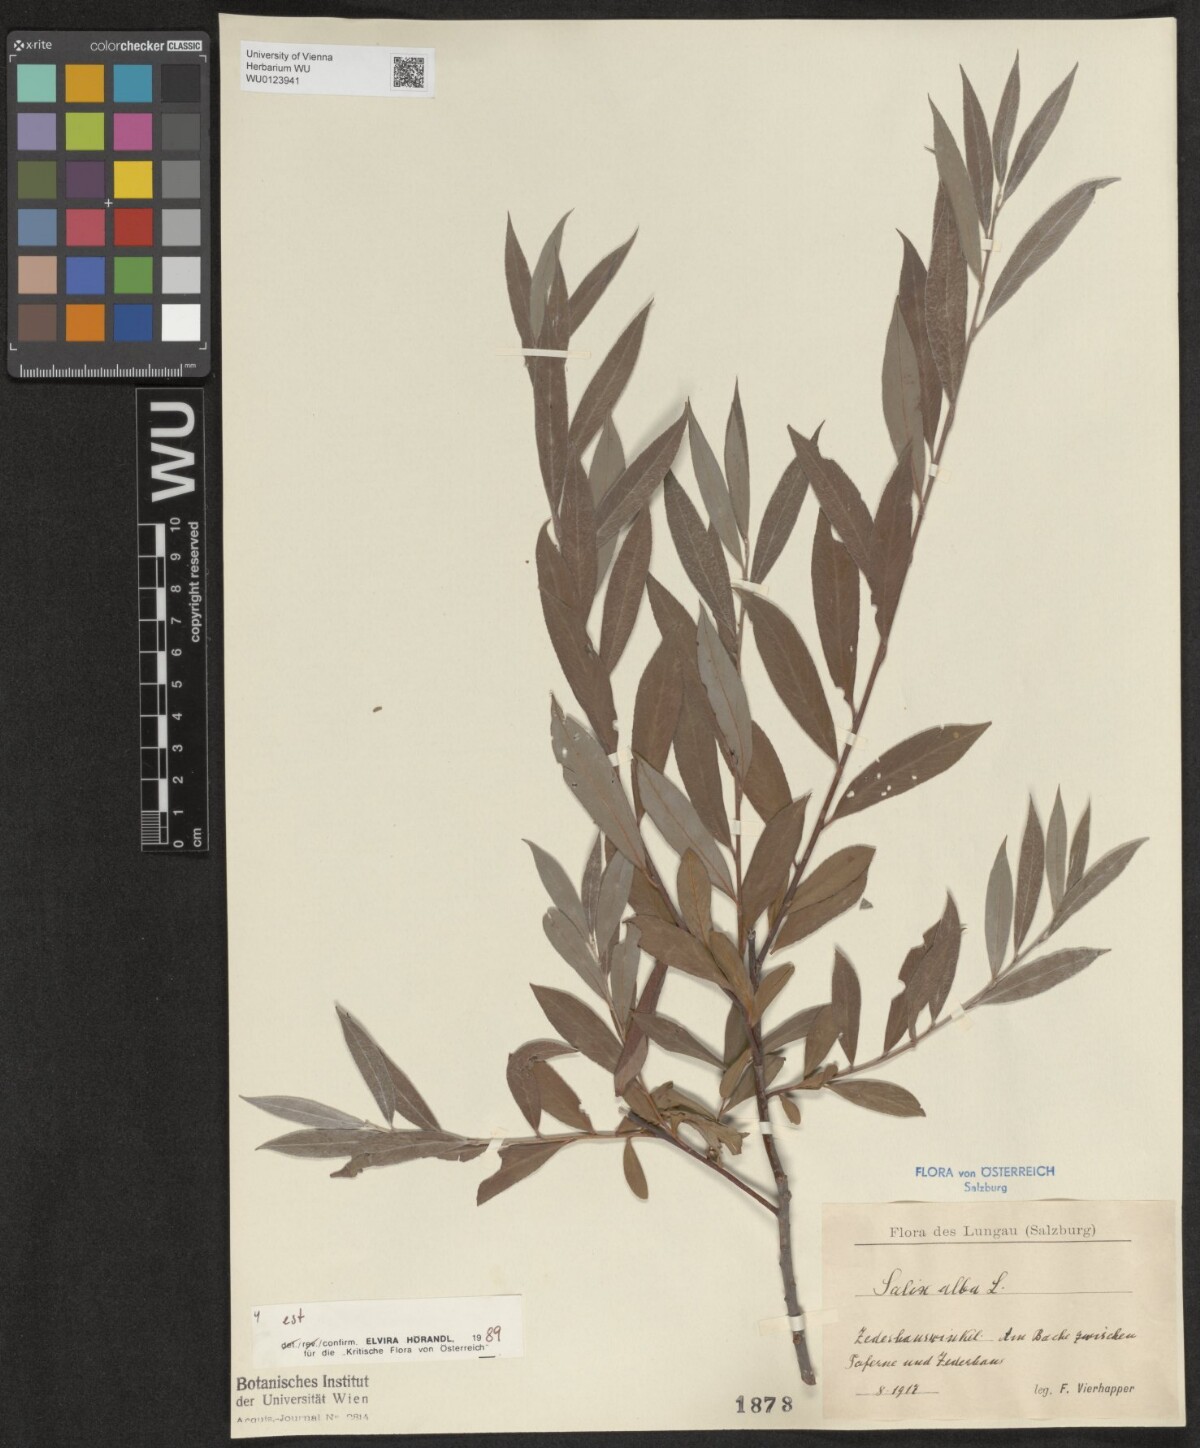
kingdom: Plantae
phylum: Tracheophyta
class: Magnoliopsida
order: Malpighiales
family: Salicaceae
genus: Salix
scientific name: Salix alba
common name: White willow
